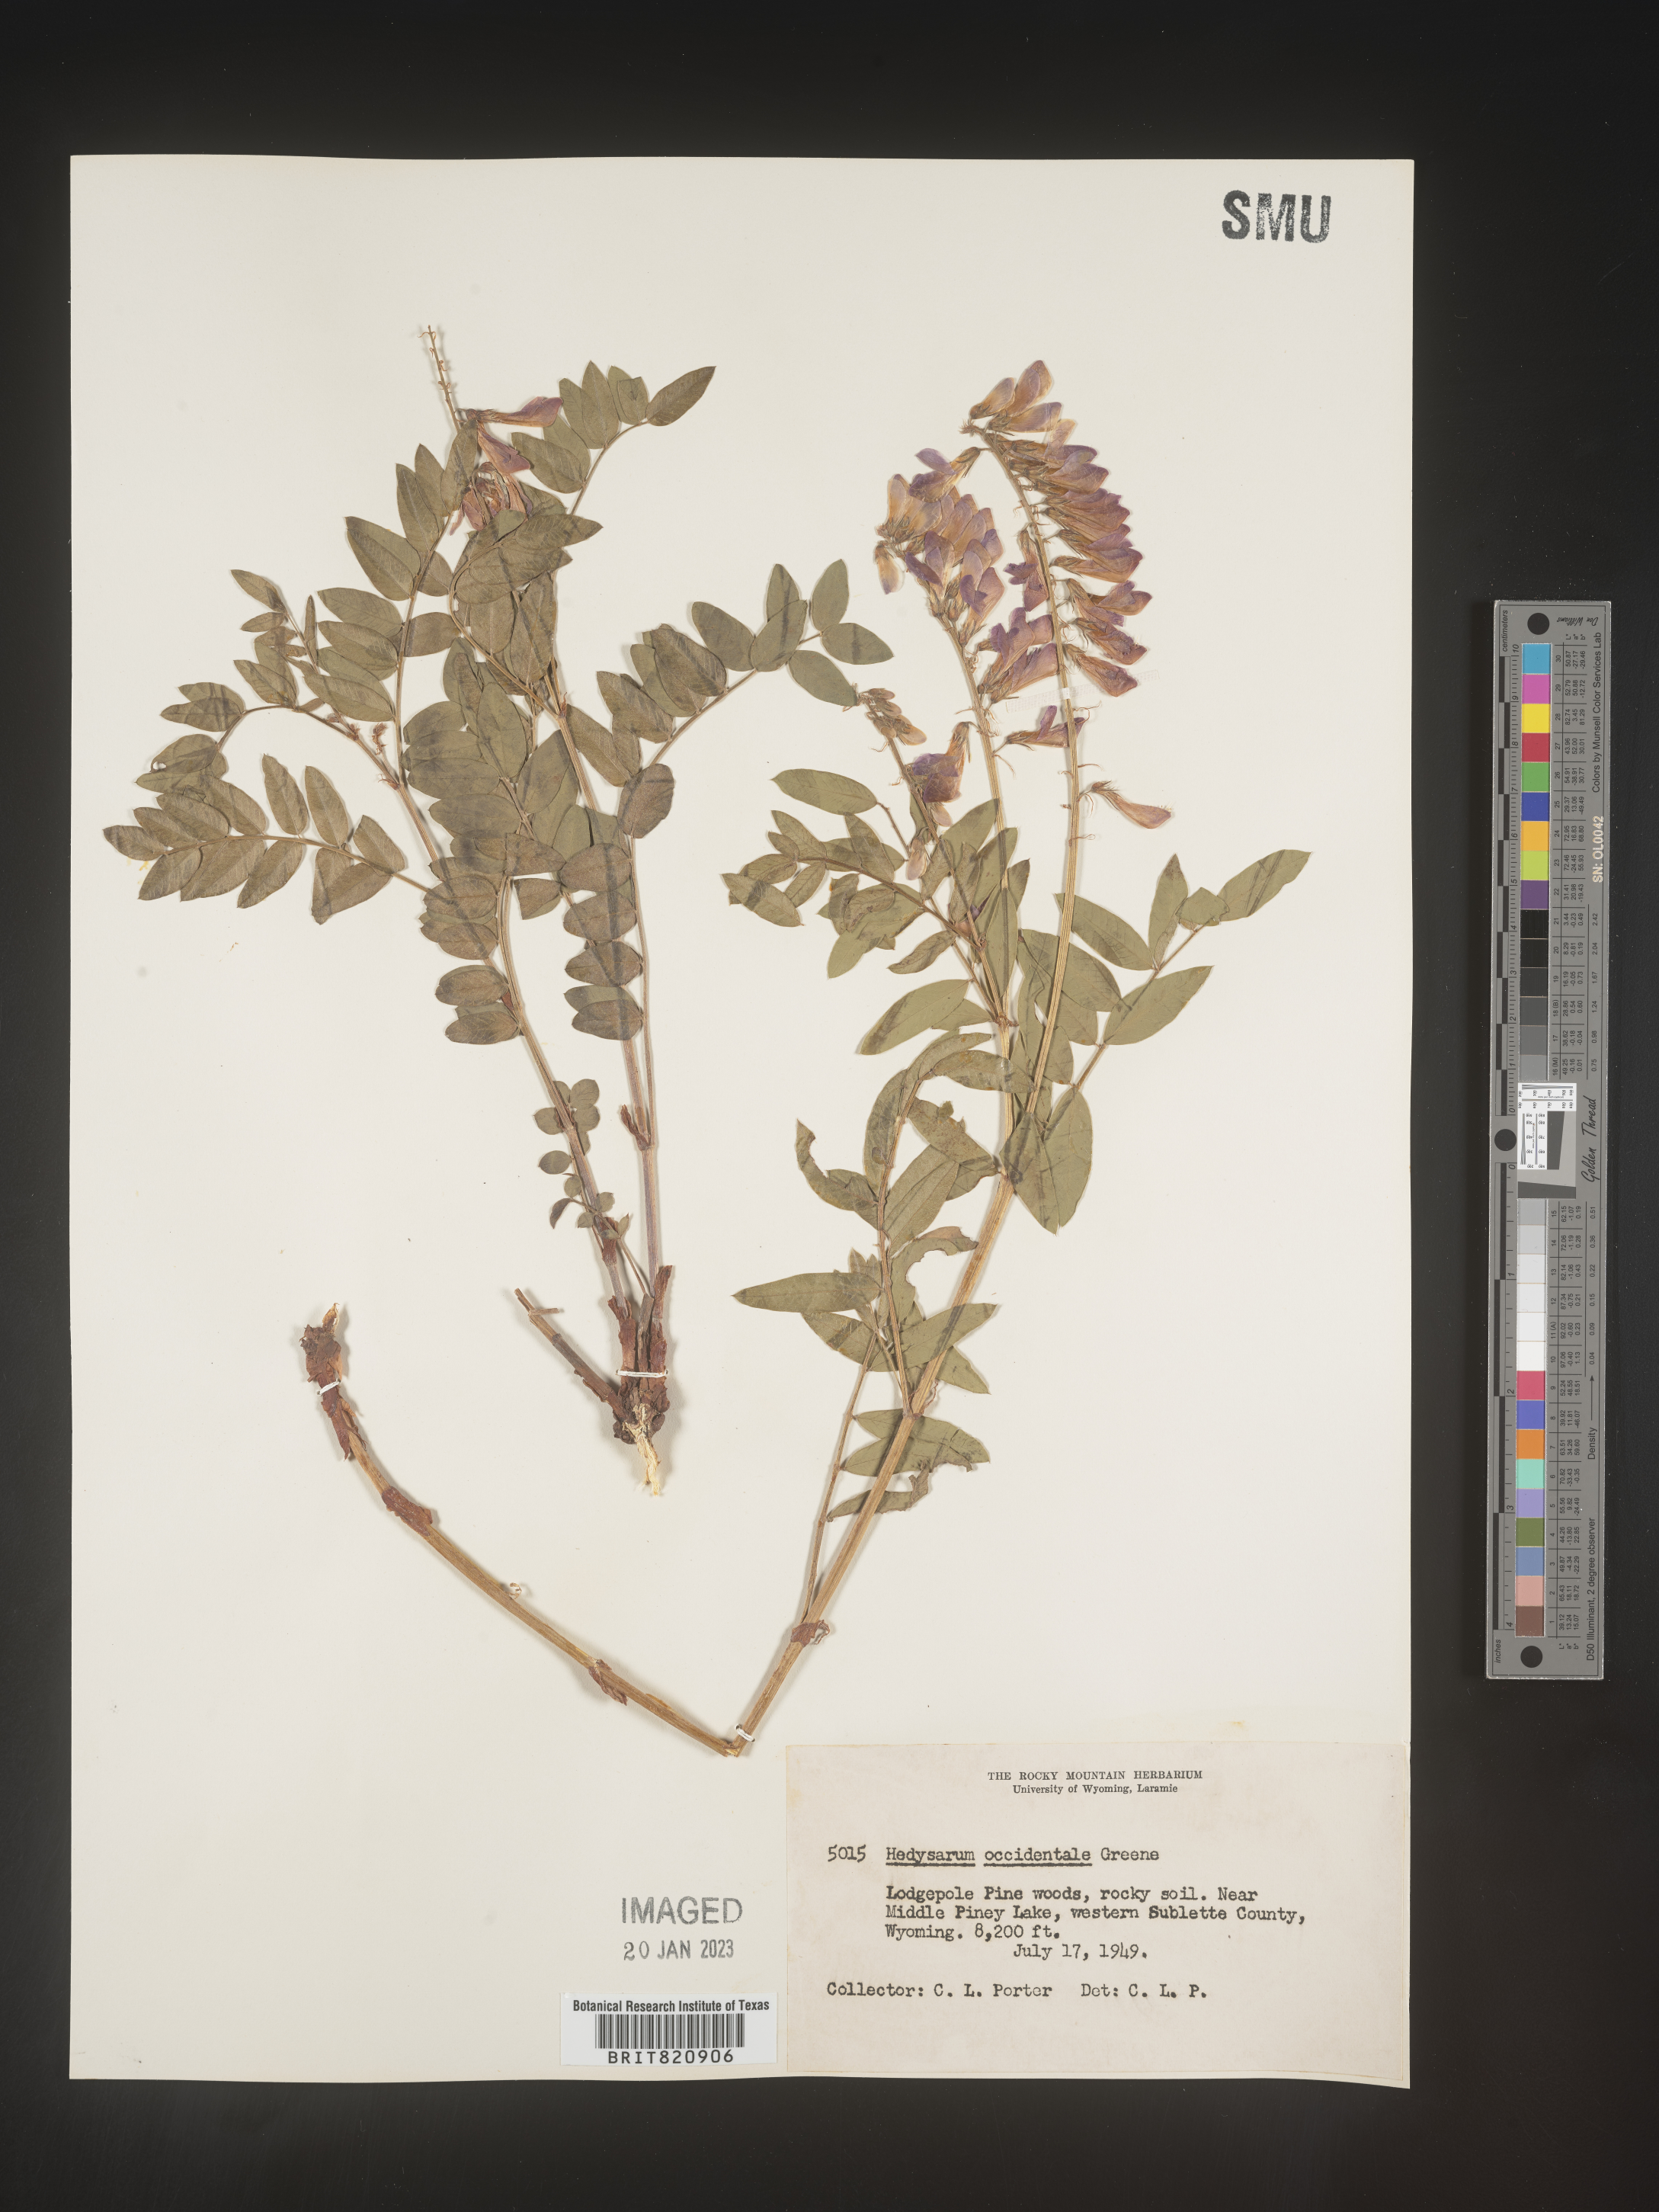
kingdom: Plantae
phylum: Tracheophyta
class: Magnoliopsida
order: Fabales
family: Fabaceae
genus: Hedysarum
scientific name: Hedysarum occidentale
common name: Western hedysarum
